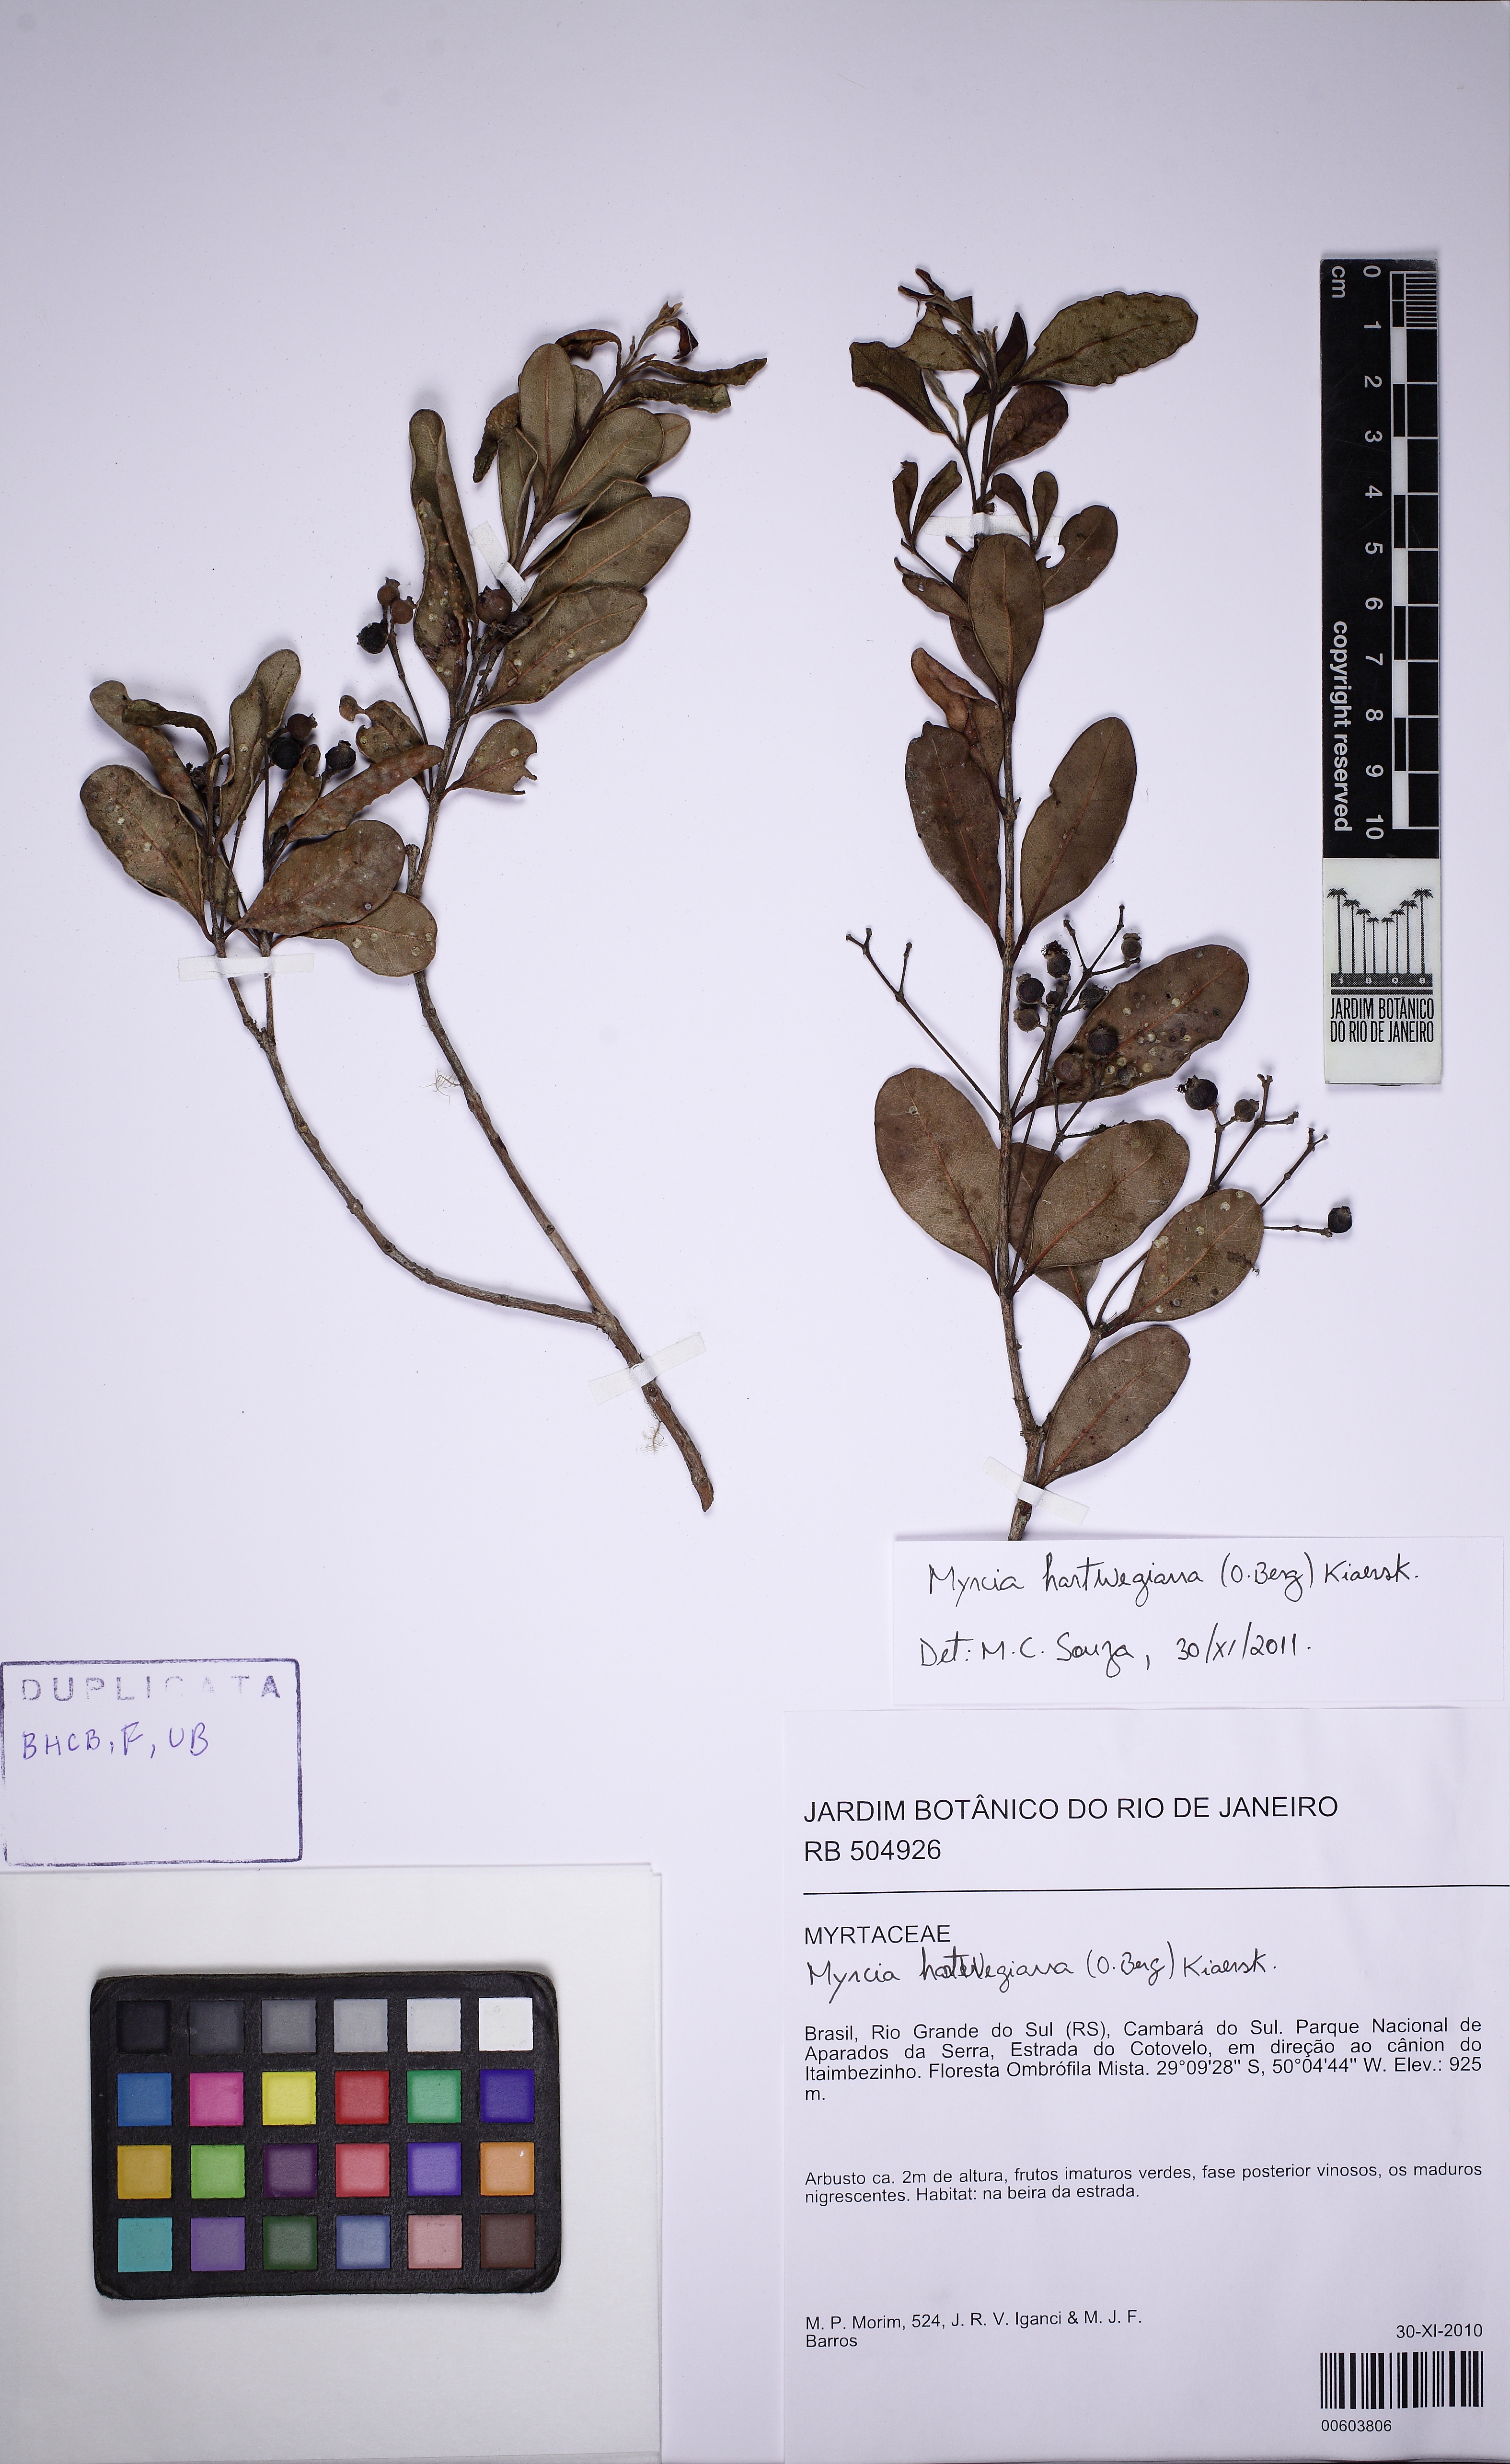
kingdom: Plantae
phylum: Tracheophyta
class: Magnoliopsida
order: Myrtales
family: Myrtaceae
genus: Myrcia
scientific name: Myrcia hartwegiana
